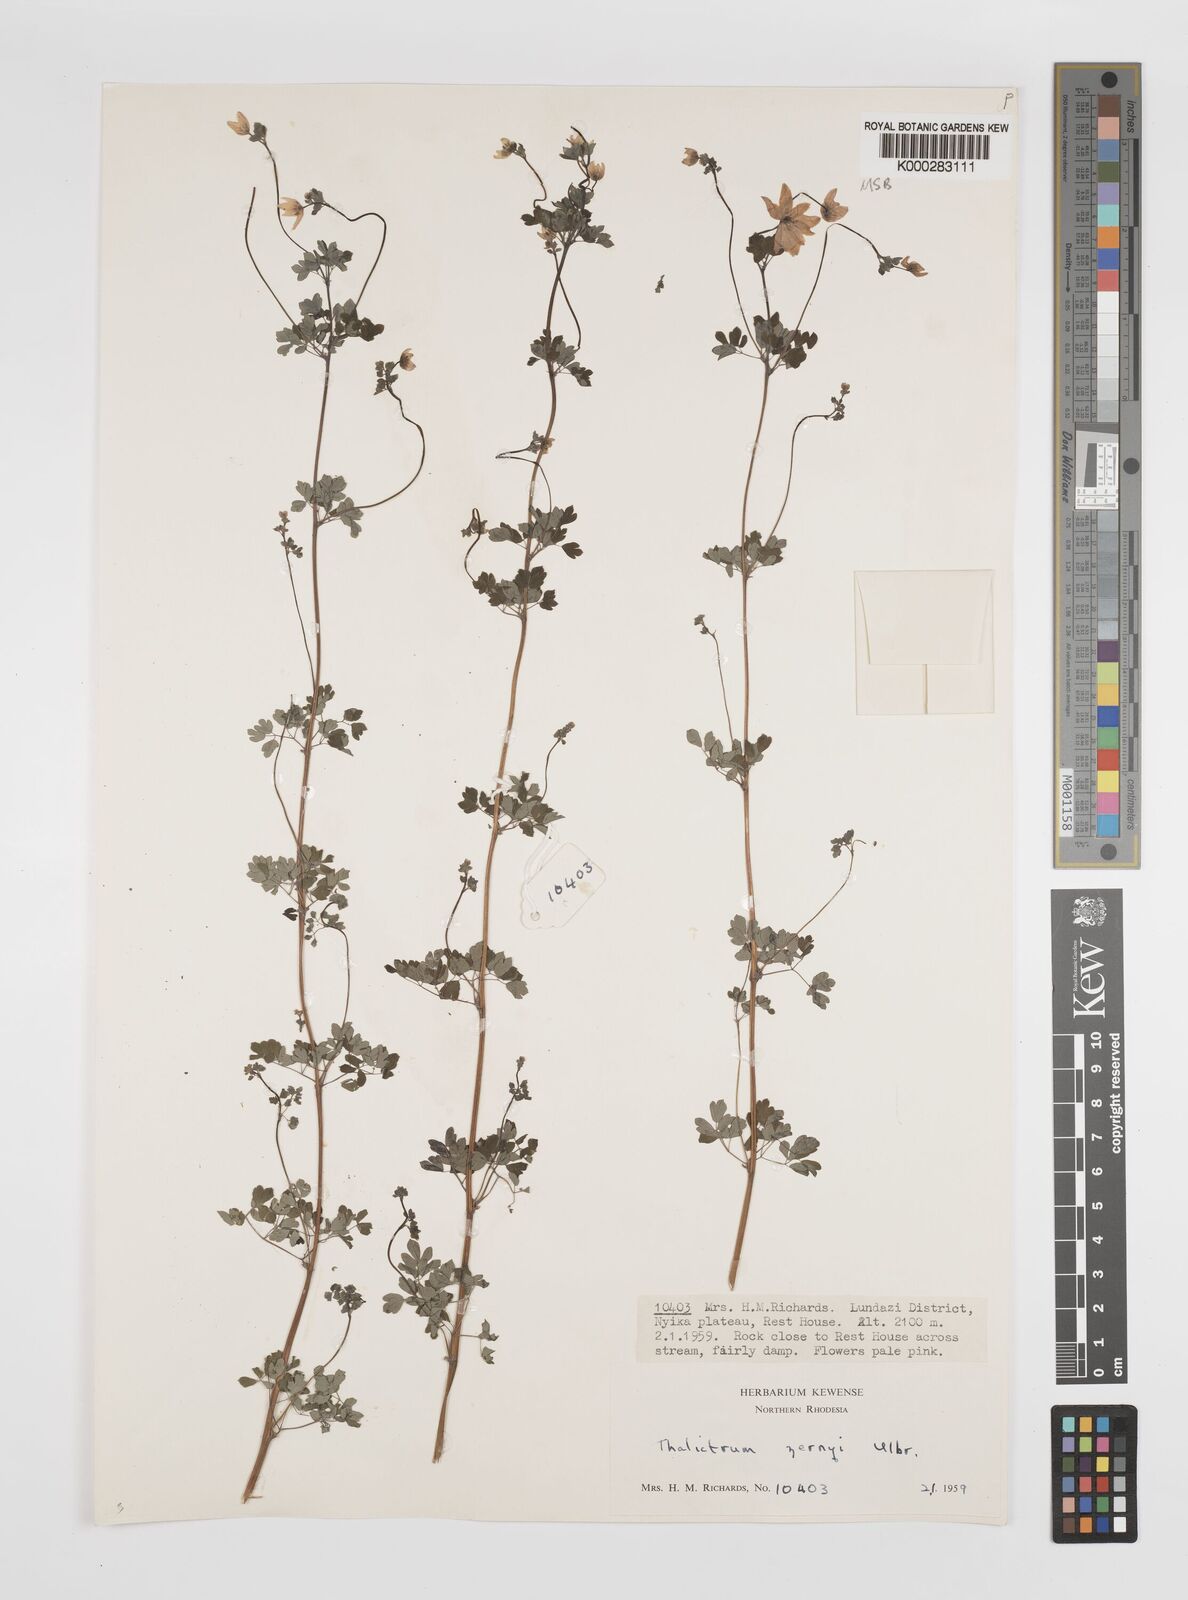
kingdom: Plantae
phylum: Tracheophyta
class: Magnoliopsida
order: Ranunculales
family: Ranunculaceae
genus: Thalictrum
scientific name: Thalictrum zernyi
